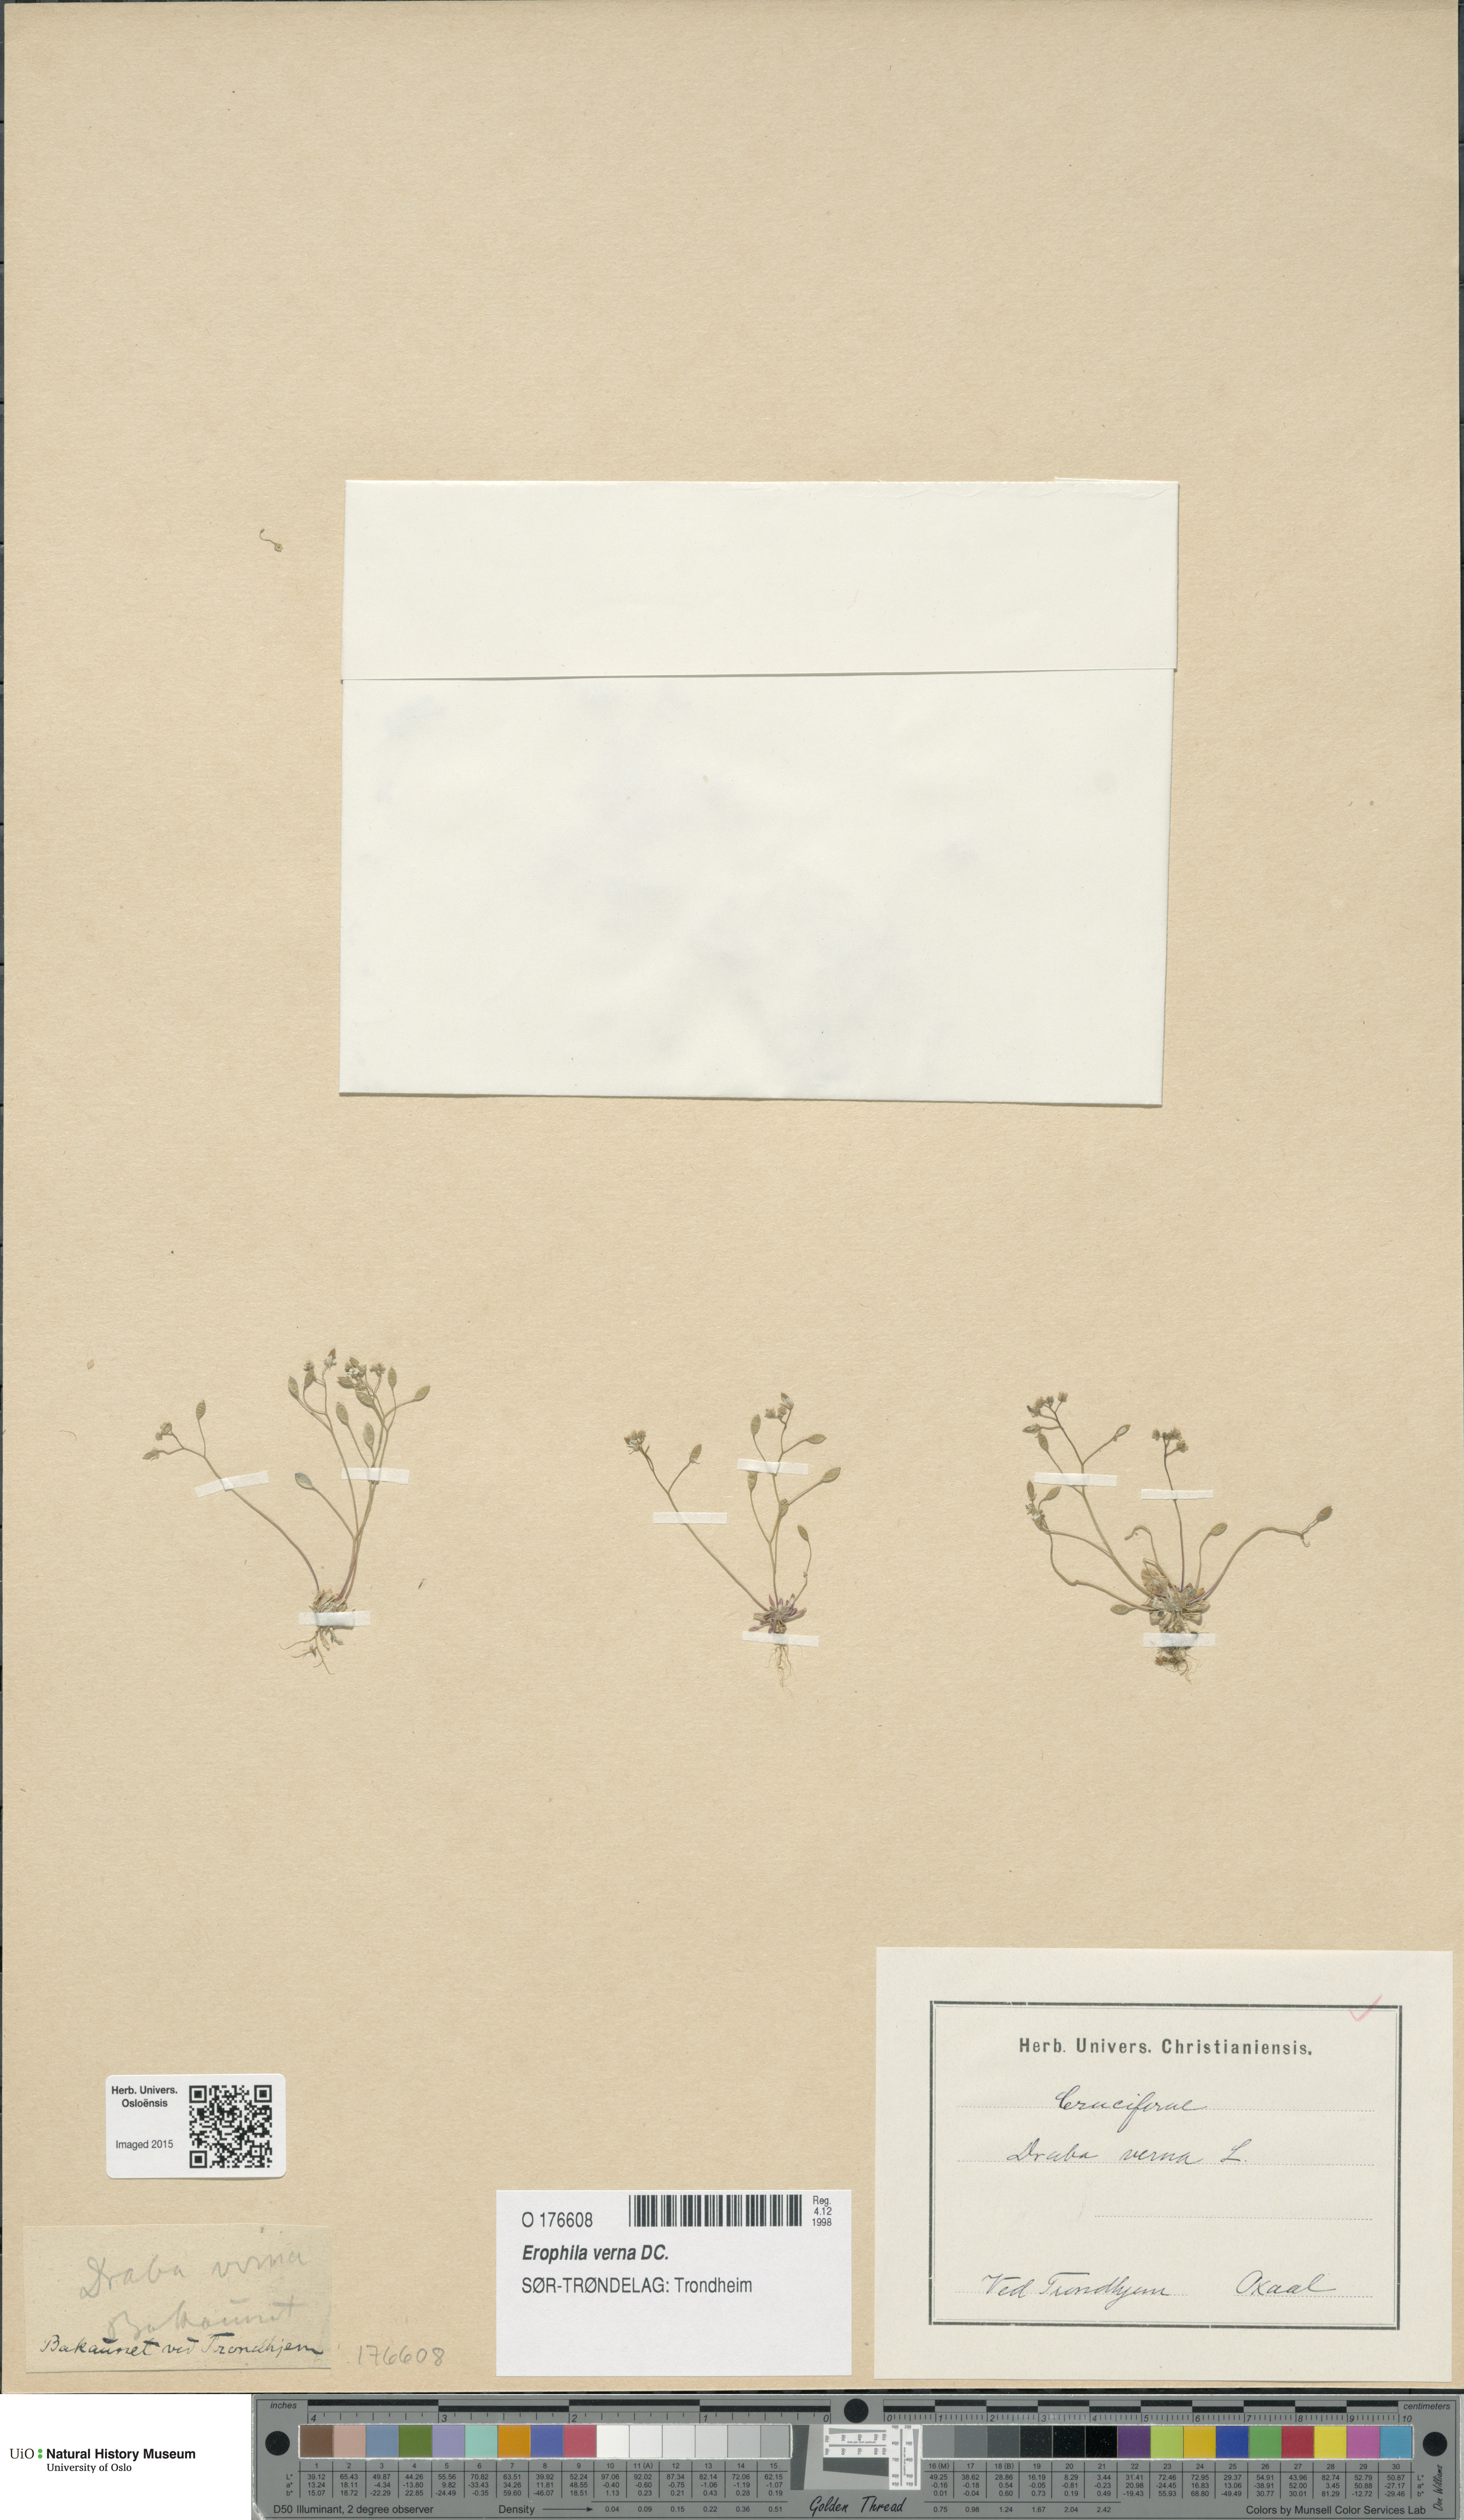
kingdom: Plantae
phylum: Tracheophyta
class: Magnoliopsida
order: Brassicales
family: Brassicaceae
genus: Draba
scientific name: Draba verna
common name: Spring draba
